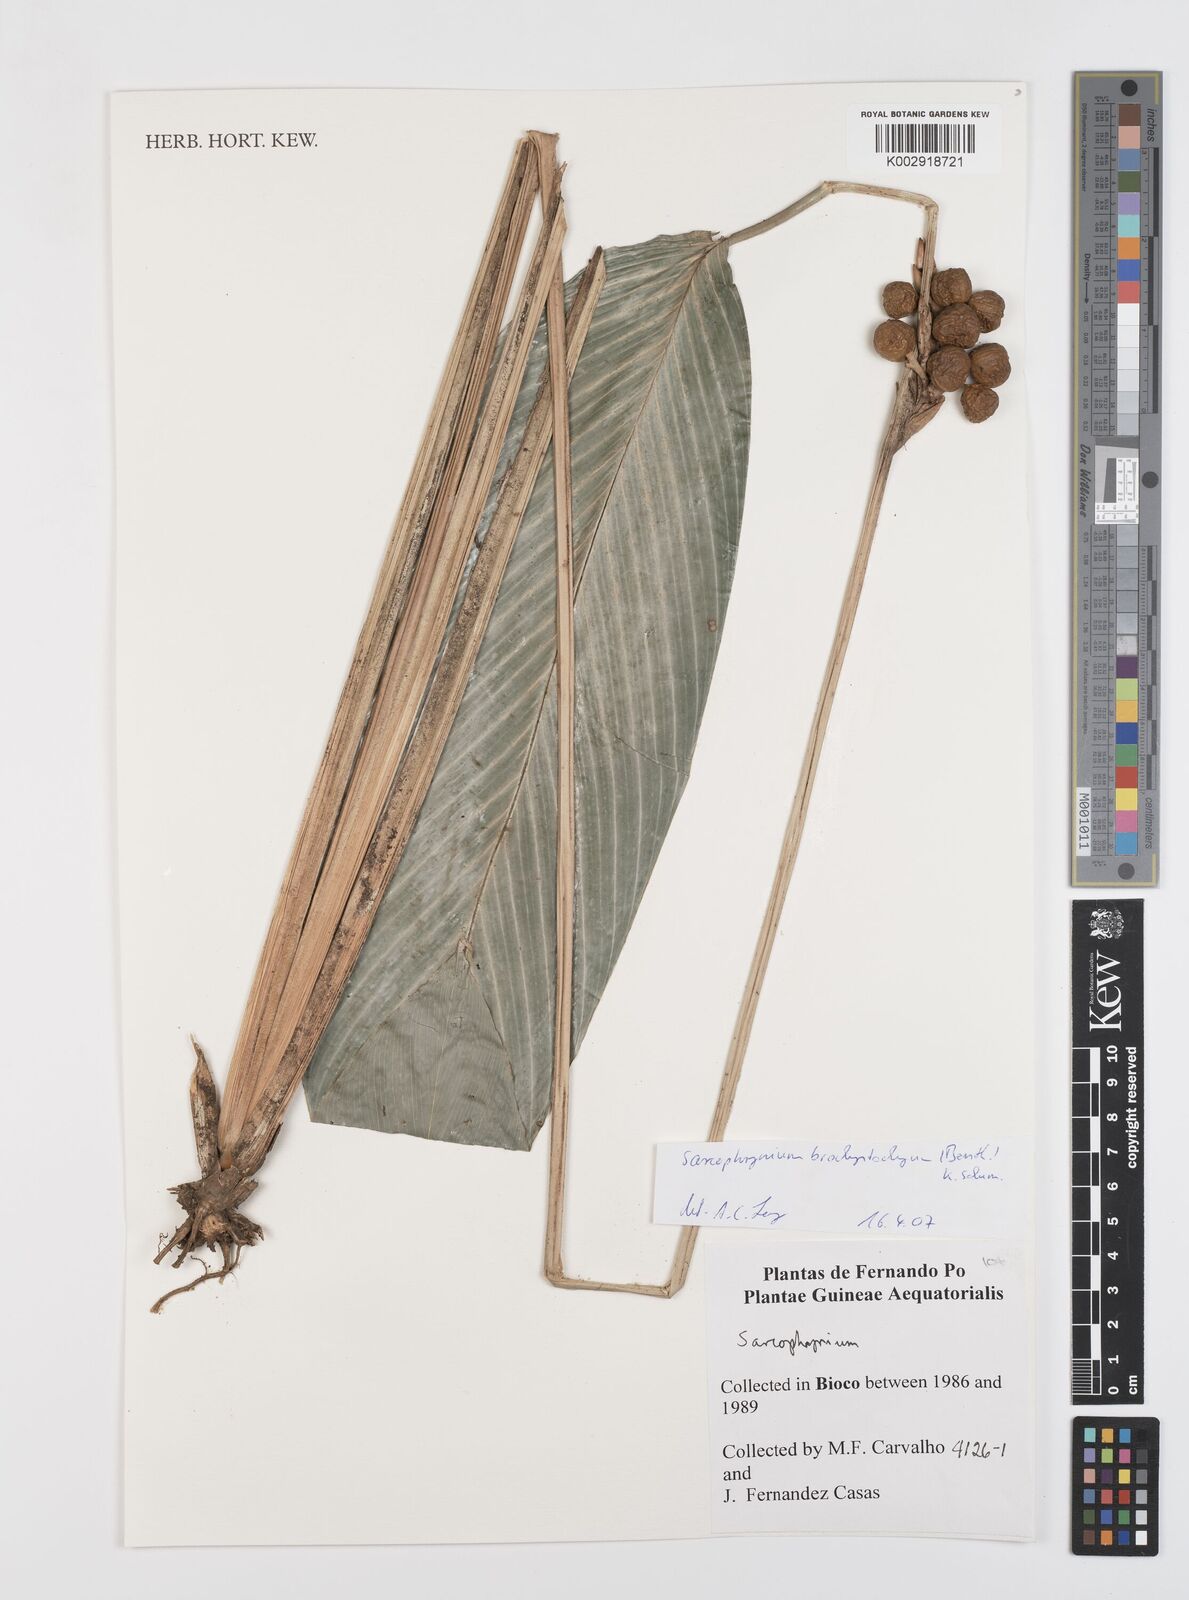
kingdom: Plantae
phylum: Tracheophyta
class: Liliopsida
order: Zingiberales
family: Marantaceae
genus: Sarcophrynium
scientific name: Sarcophrynium brachystachyum
